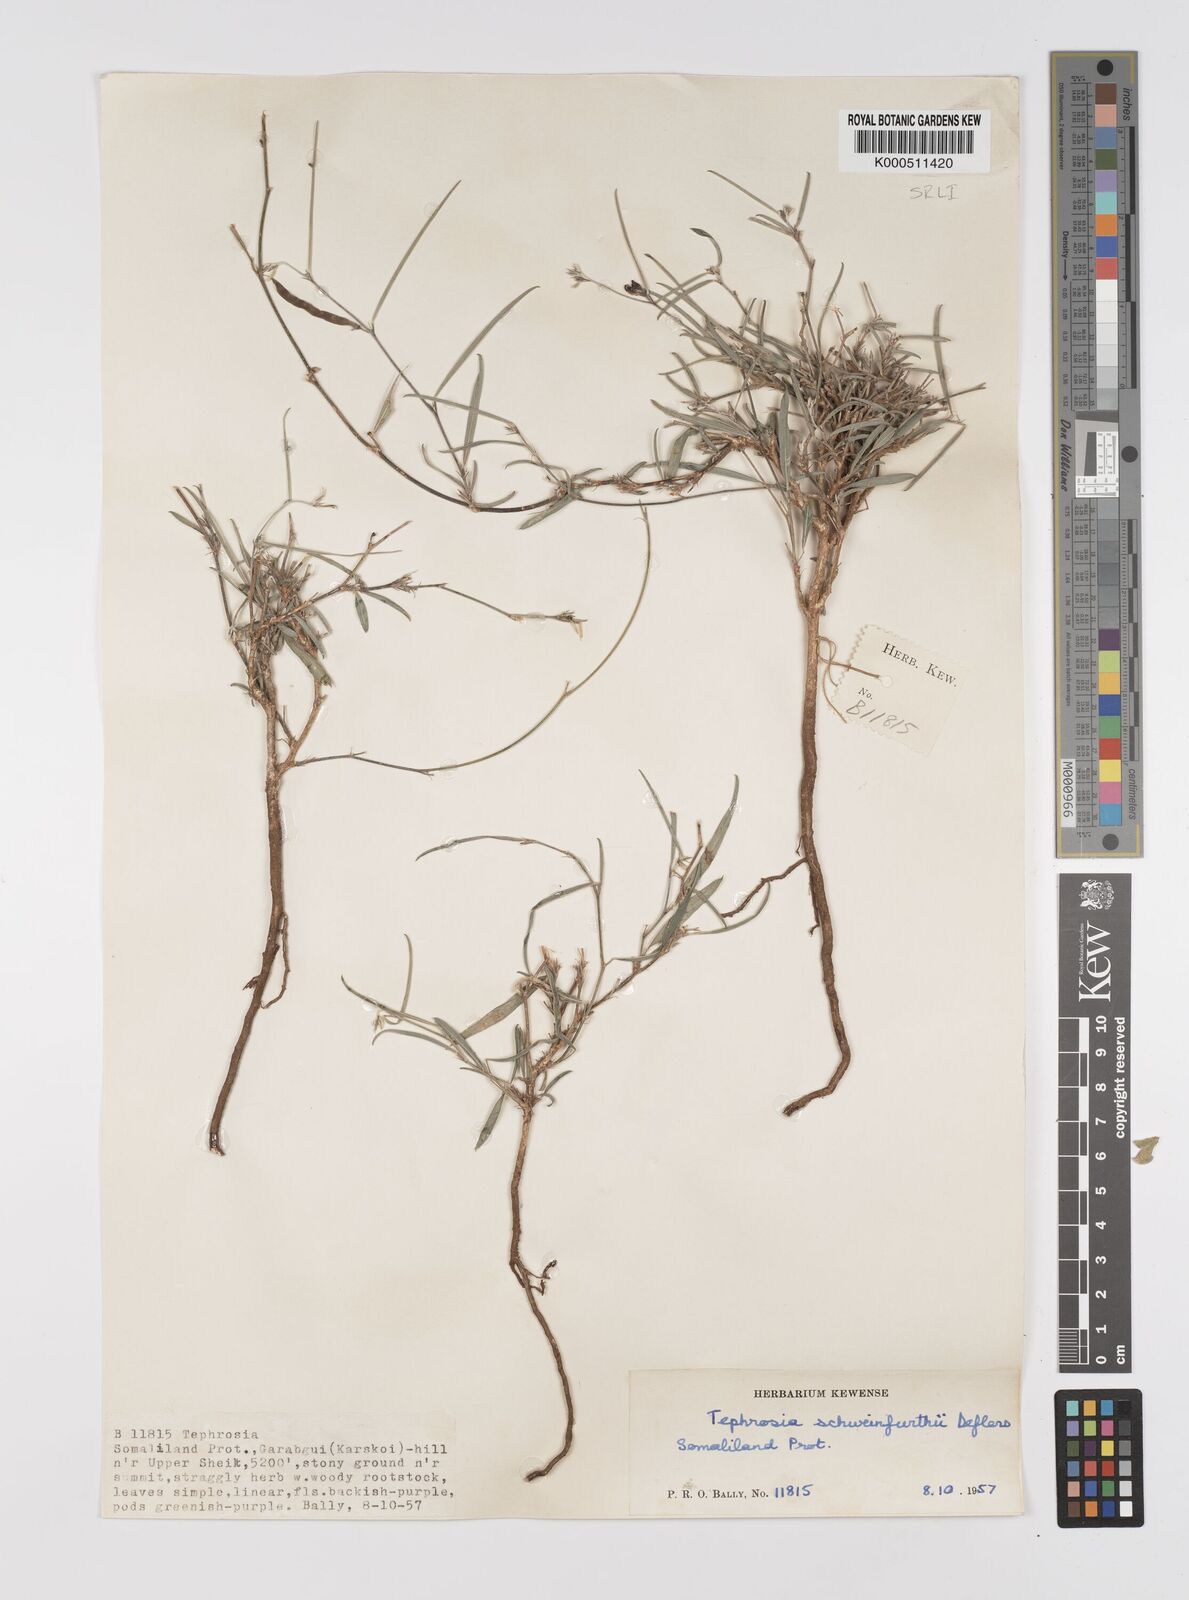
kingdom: Plantae
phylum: Tracheophyta
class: Magnoliopsida
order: Fabales
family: Fabaceae
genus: Tephrosia
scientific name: Tephrosia heterophylla
